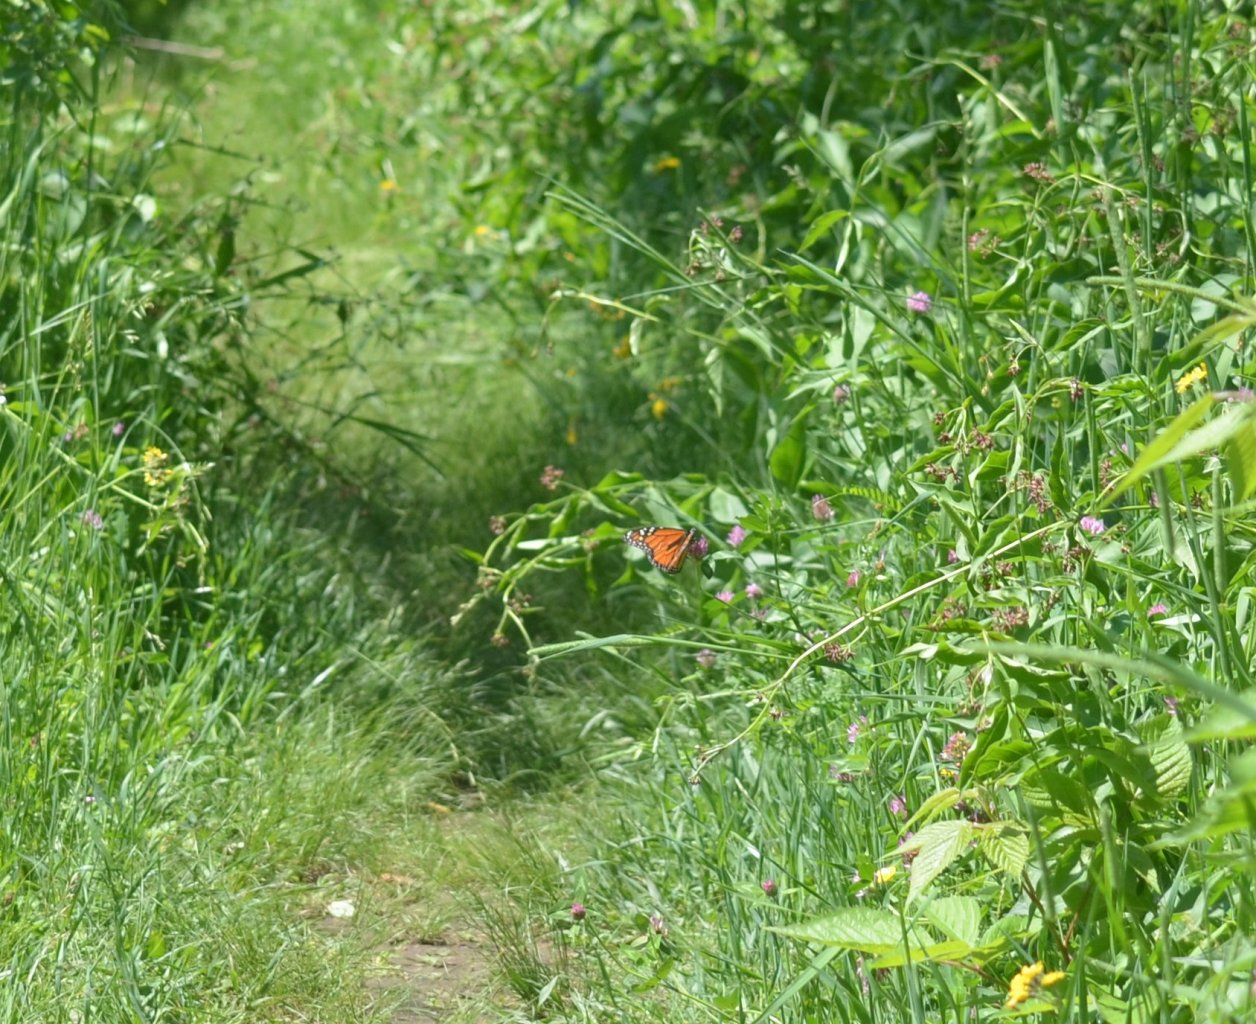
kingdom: Animalia
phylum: Arthropoda
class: Insecta
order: Lepidoptera
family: Nymphalidae
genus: Danaus
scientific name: Danaus plexippus
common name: Monarch
